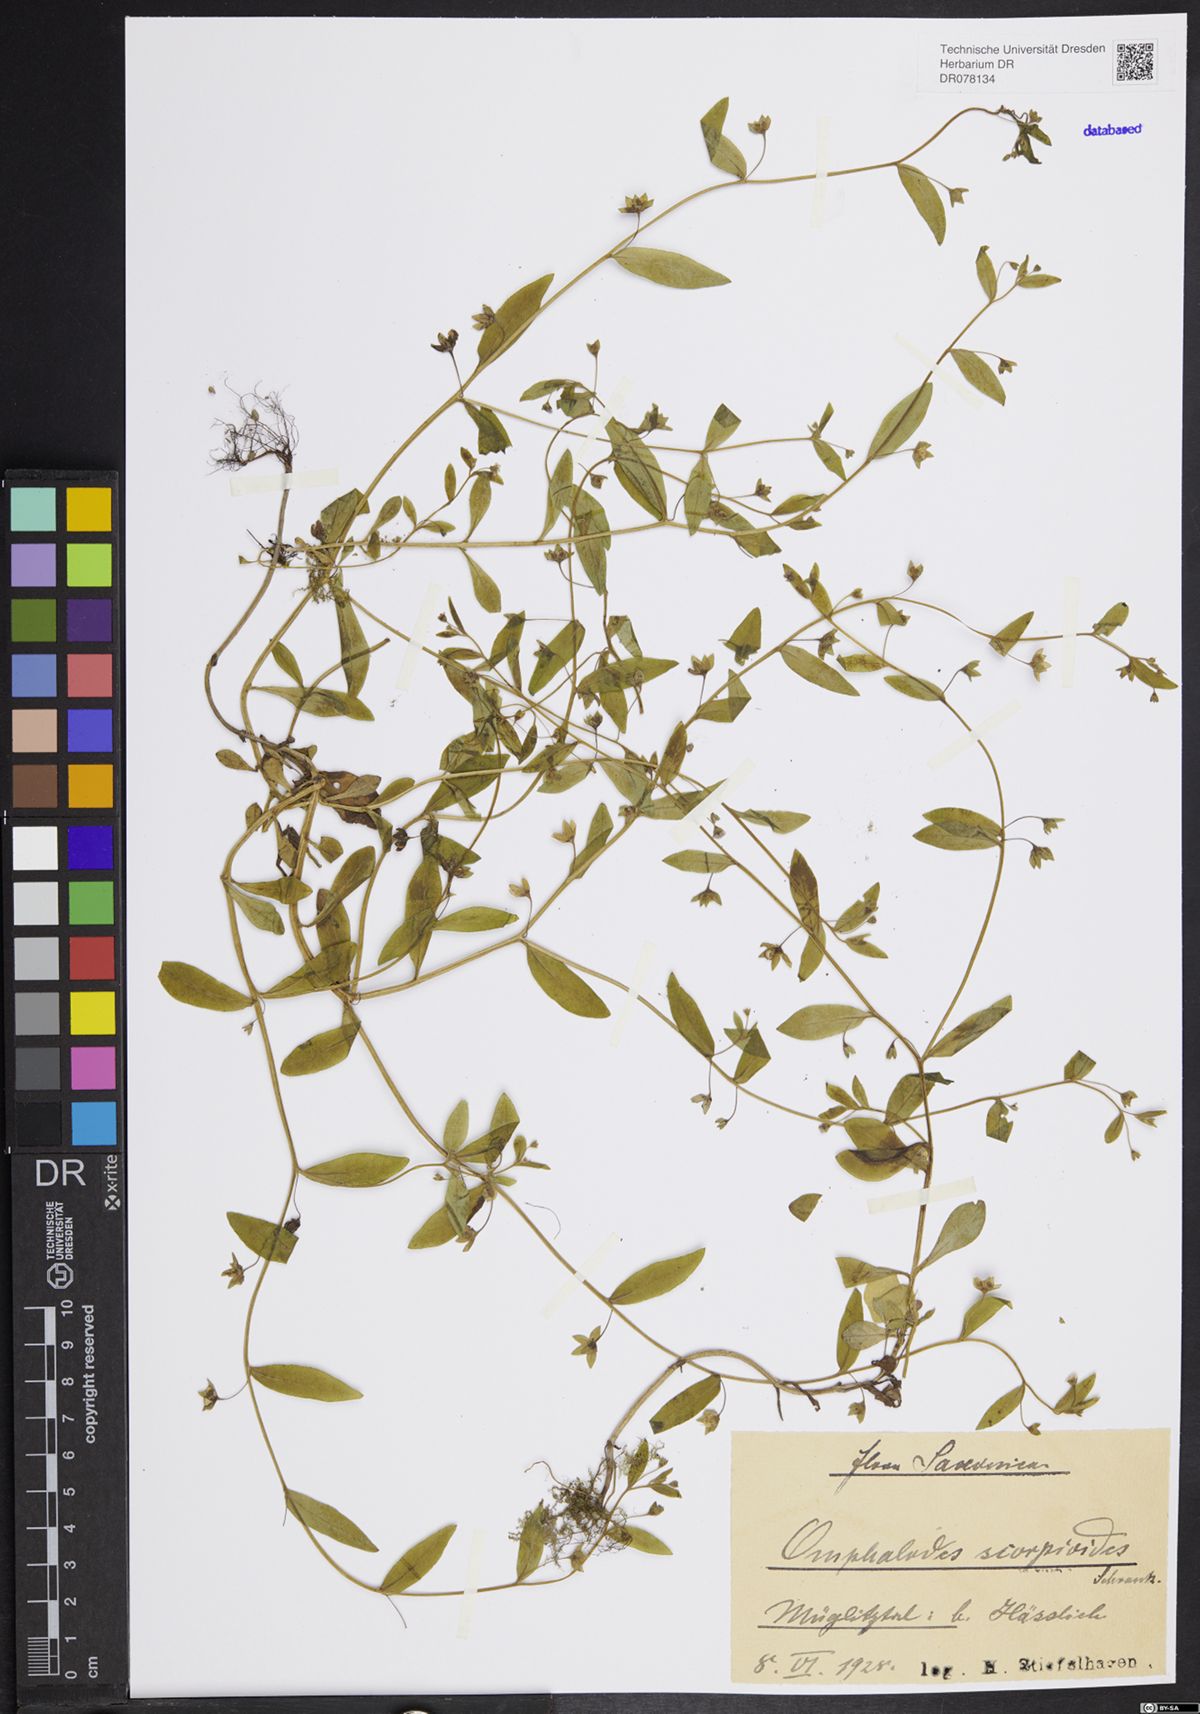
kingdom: Plantae
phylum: Tracheophyta
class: Magnoliopsida
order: Boraginales
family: Boraginaceae
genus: Memoremea
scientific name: Memoremea scorpioides
